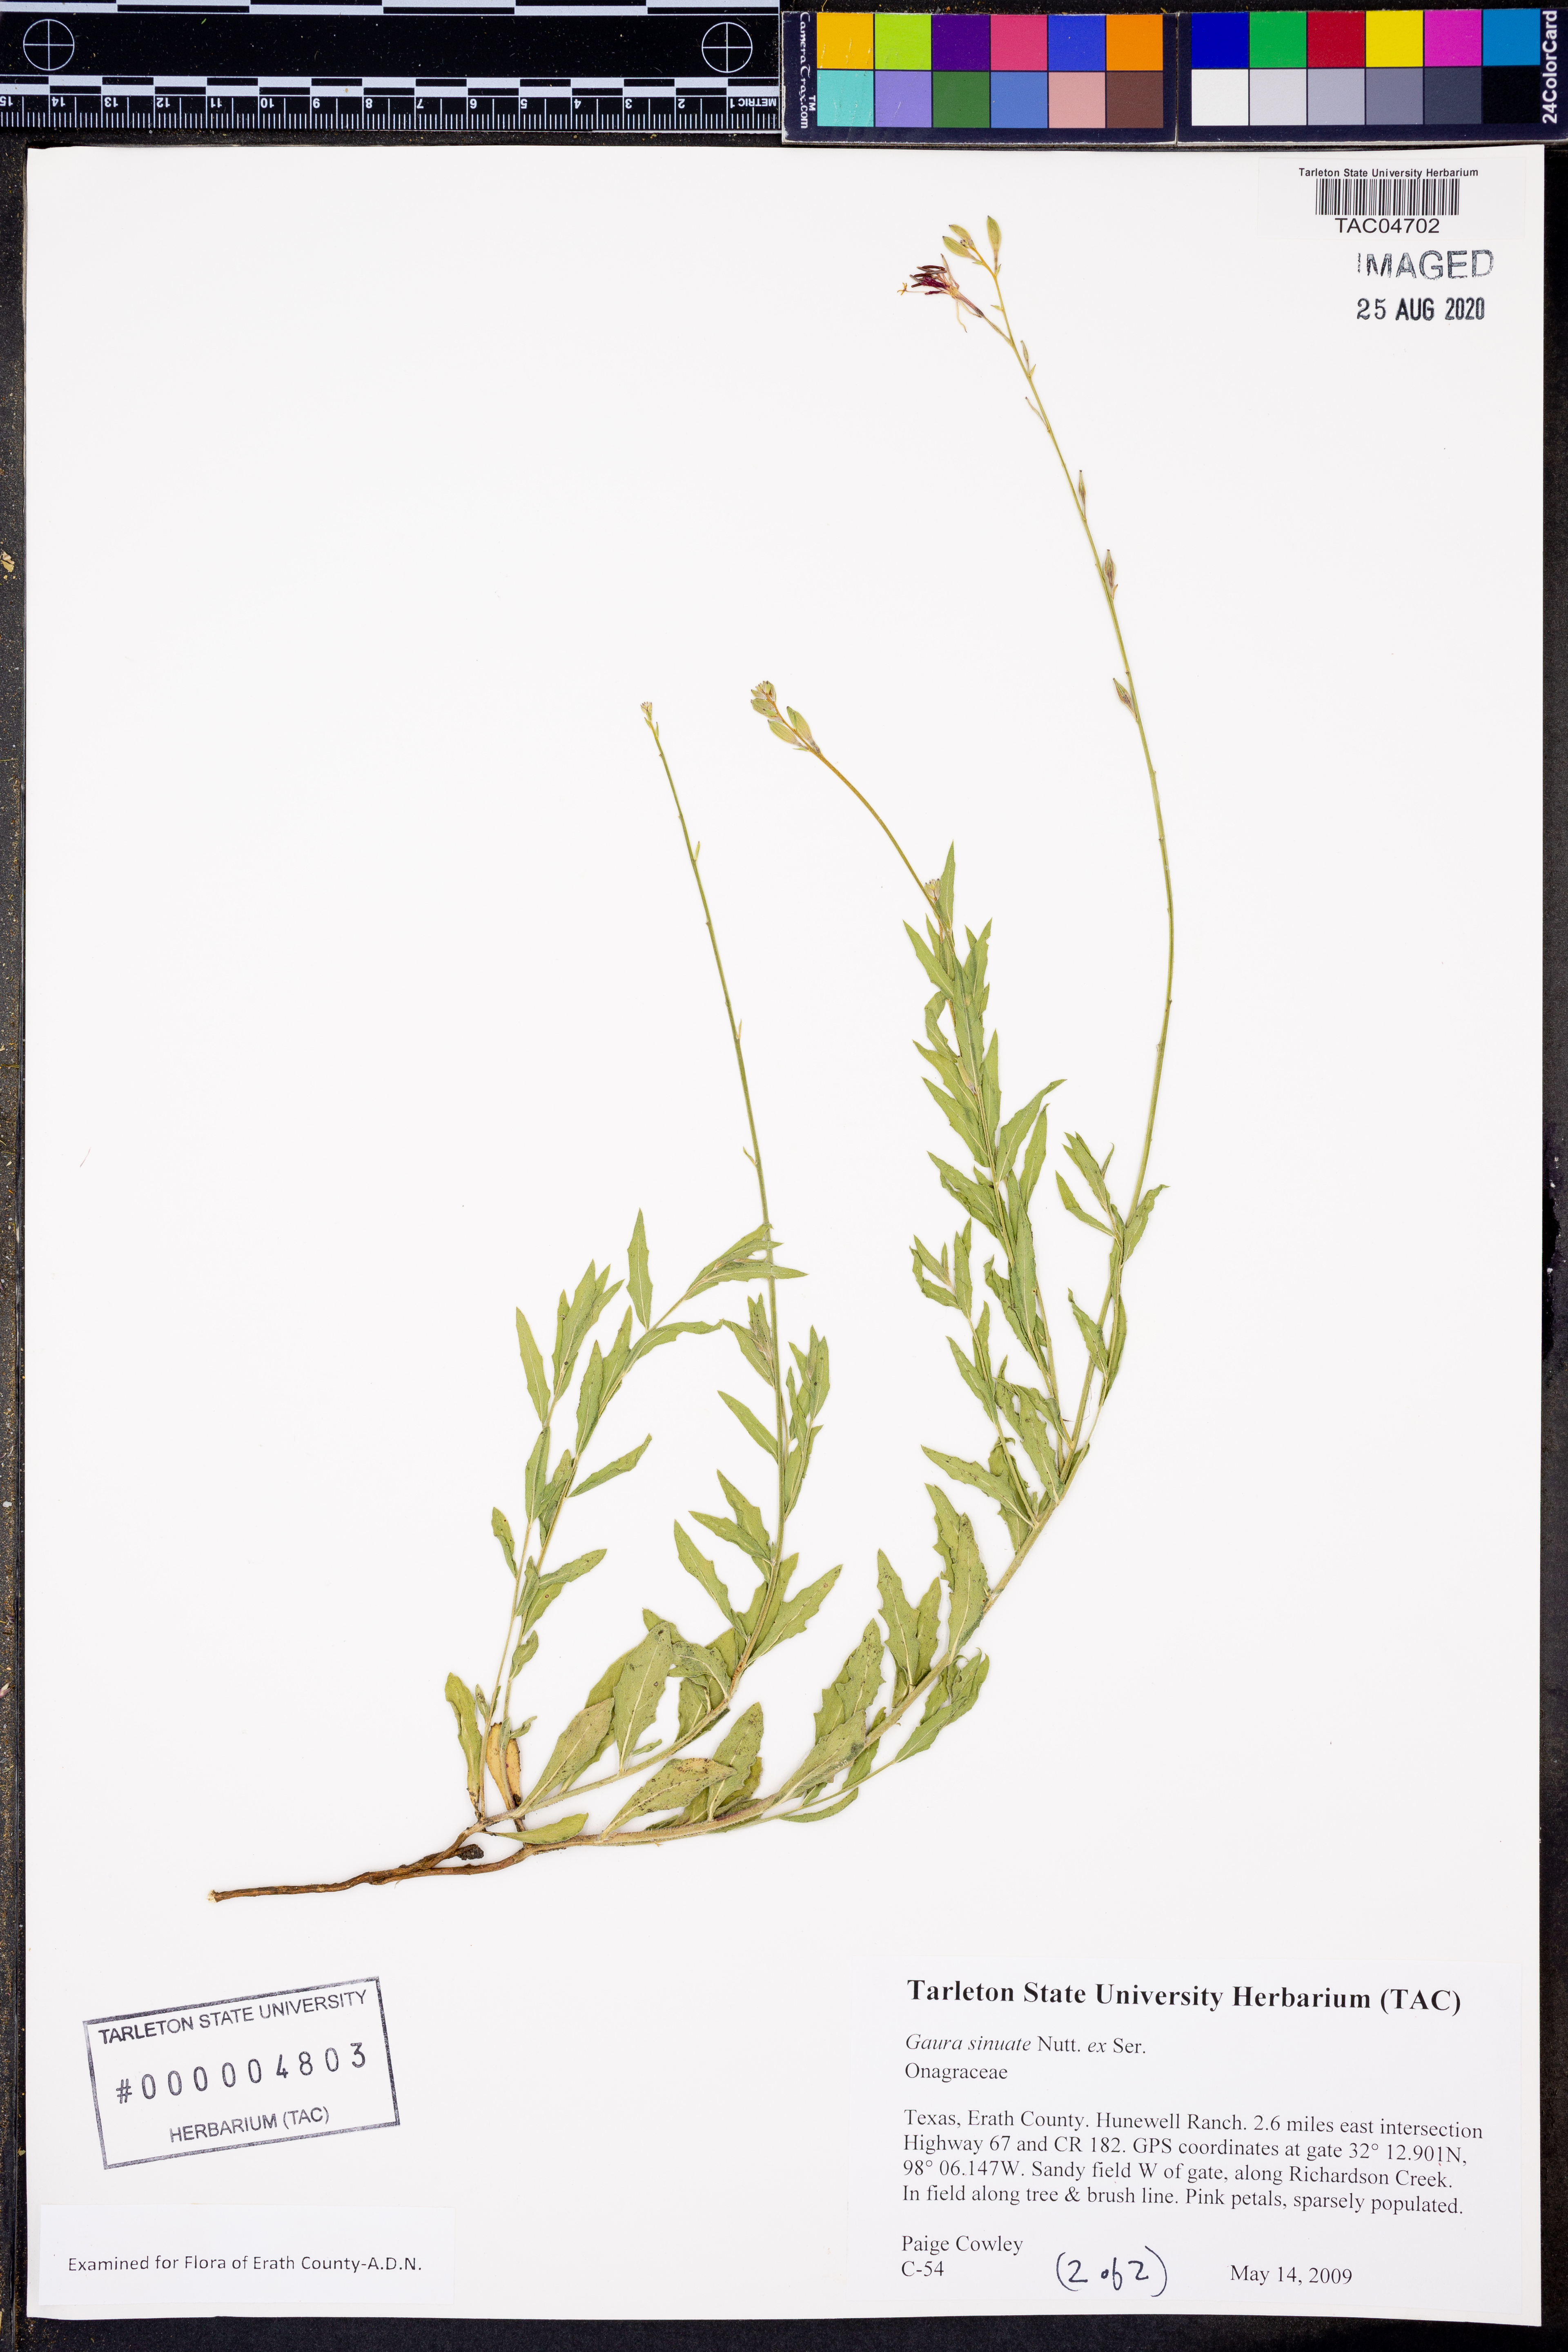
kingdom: Plantae
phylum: Tracheophyta
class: Magnoliopsida
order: Myrtales
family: Onagraceae
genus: Oenothera
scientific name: Oenothera sinuosa
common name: Wavyleaf beeblossom
